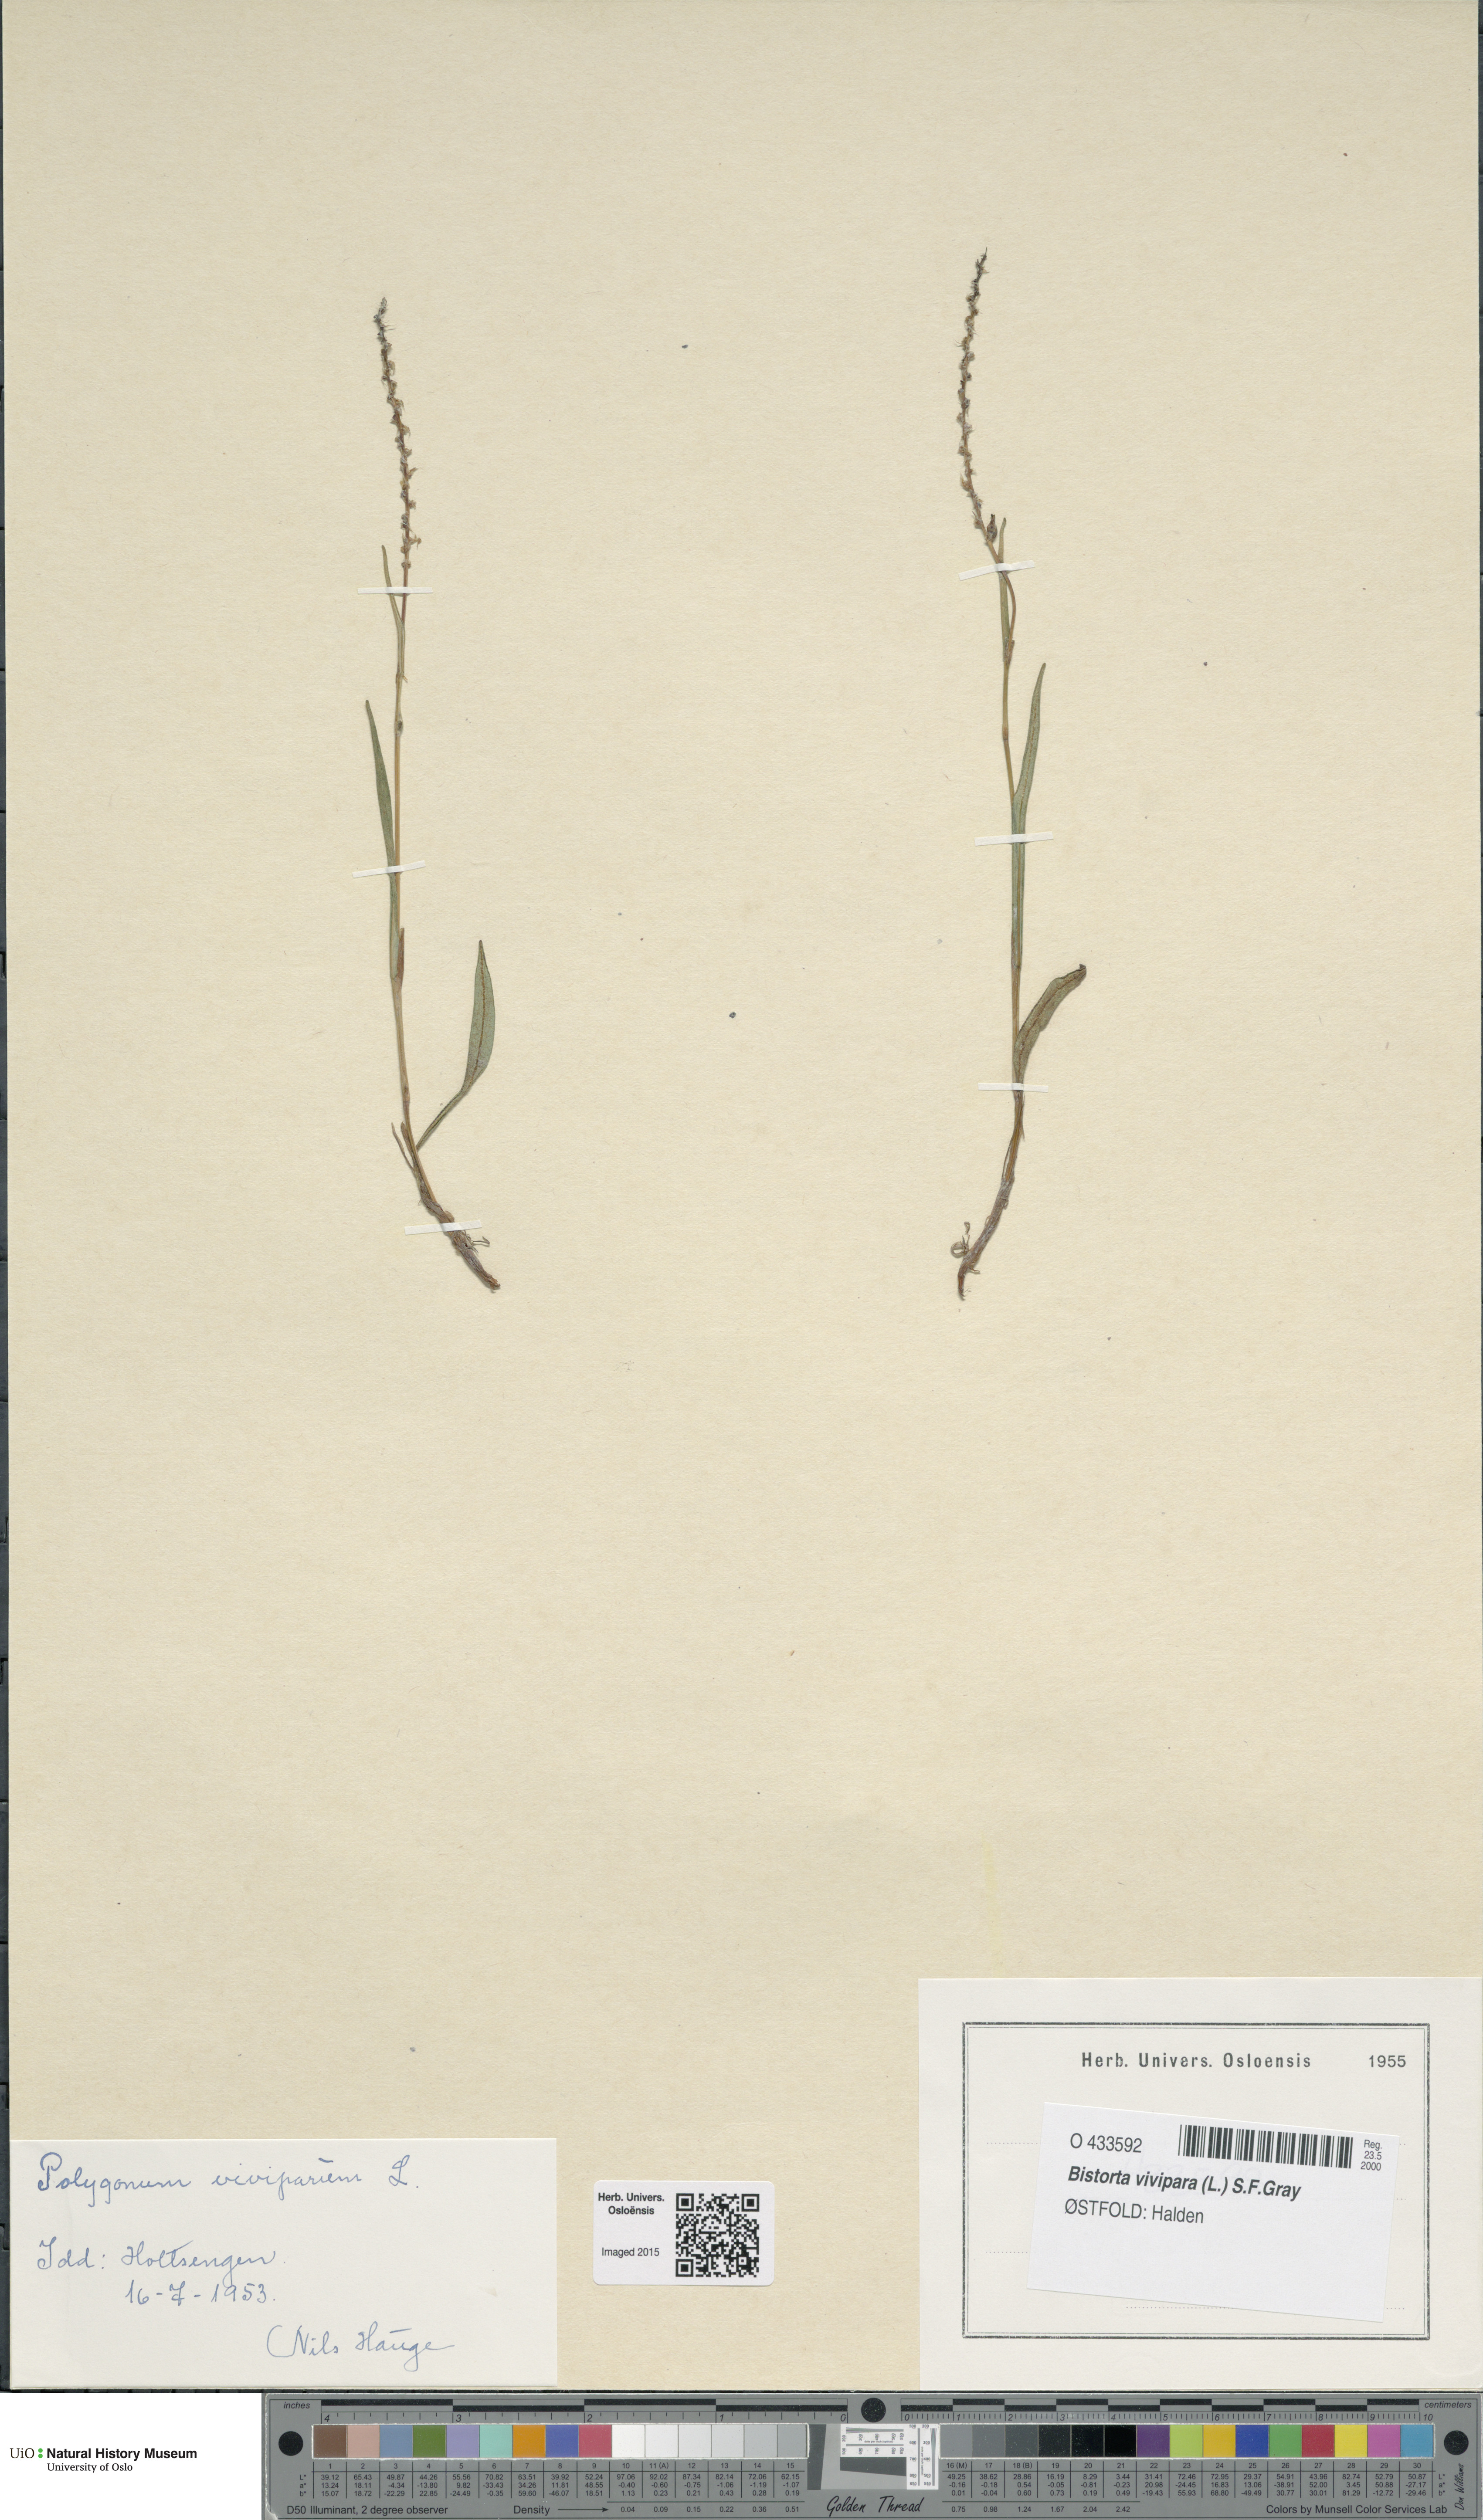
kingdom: Plantae
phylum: Tracheophyta
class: Magnoliopsida
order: Caryophyllales
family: Polygonaceae
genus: Bistorta
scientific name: Bistorta vivipara
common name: Alpine bistort
